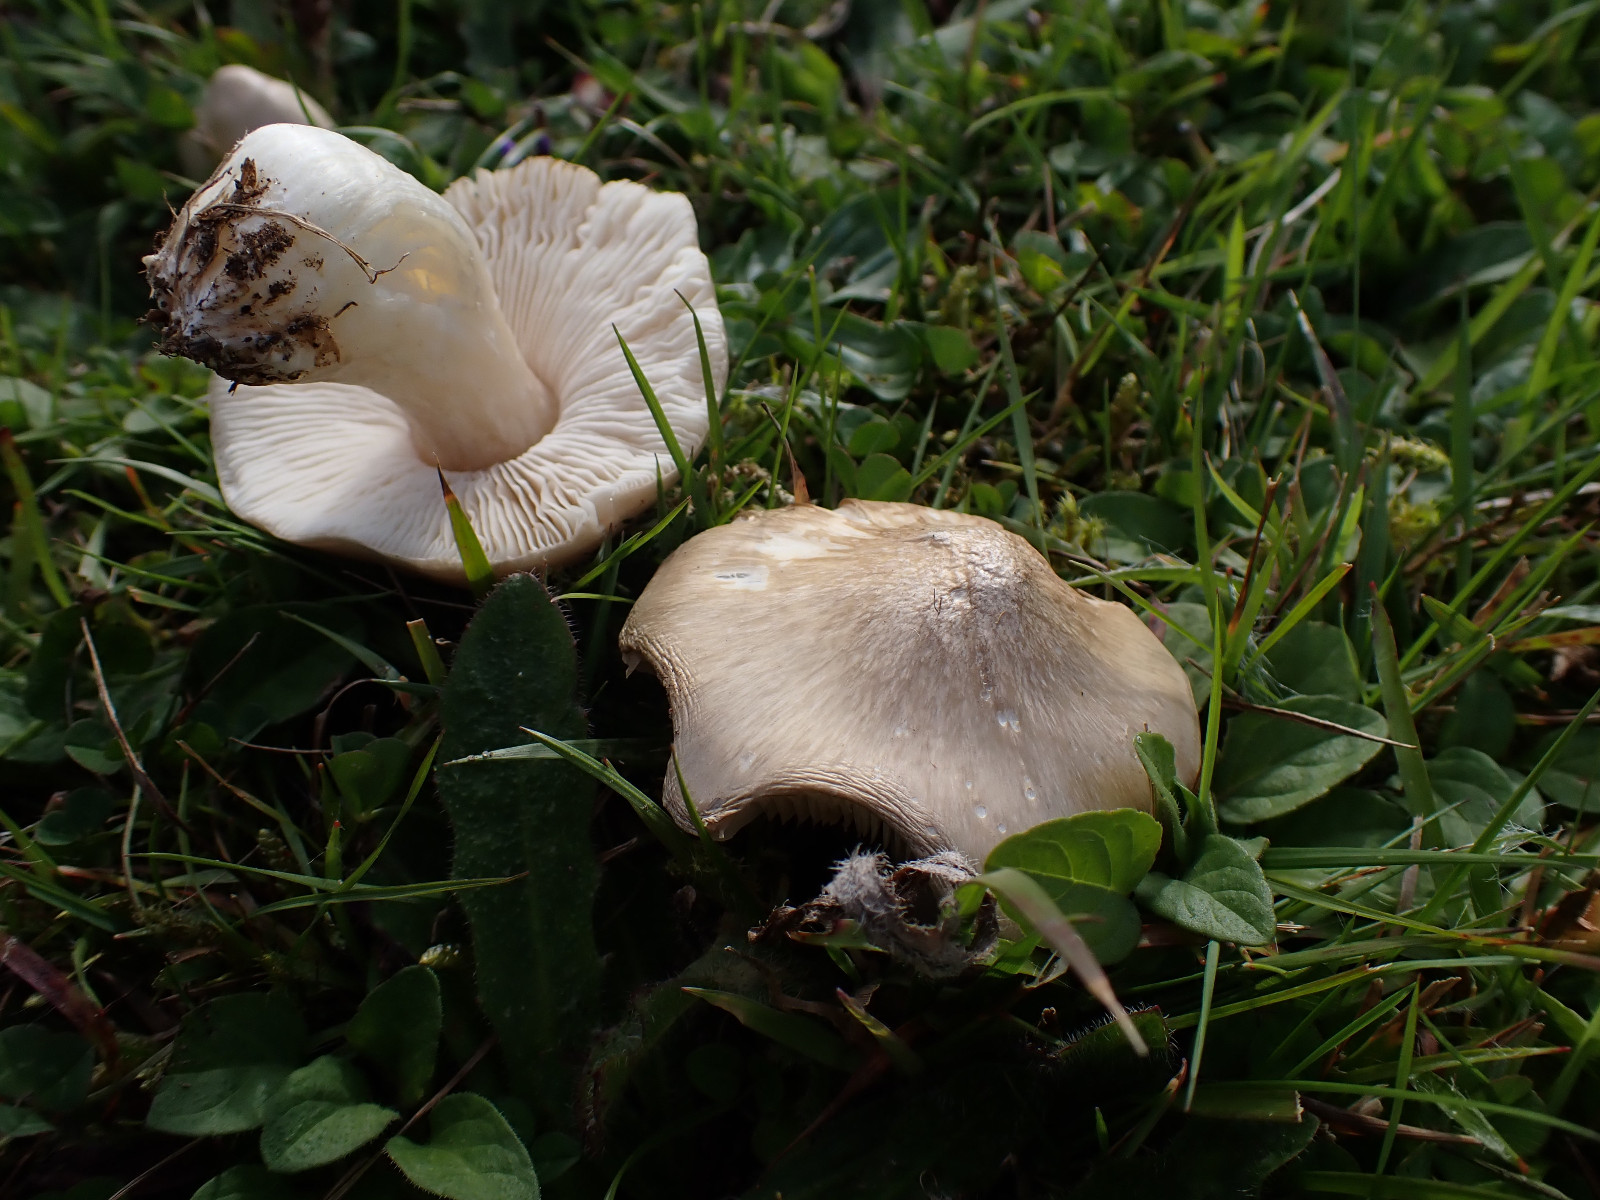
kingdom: Fungi
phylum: Basidiomycota
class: Agaricomycetes
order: Agaricales
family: Entolomataceae
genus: Entoloma
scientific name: Entoloma prunuloides
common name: mel-rødblad
